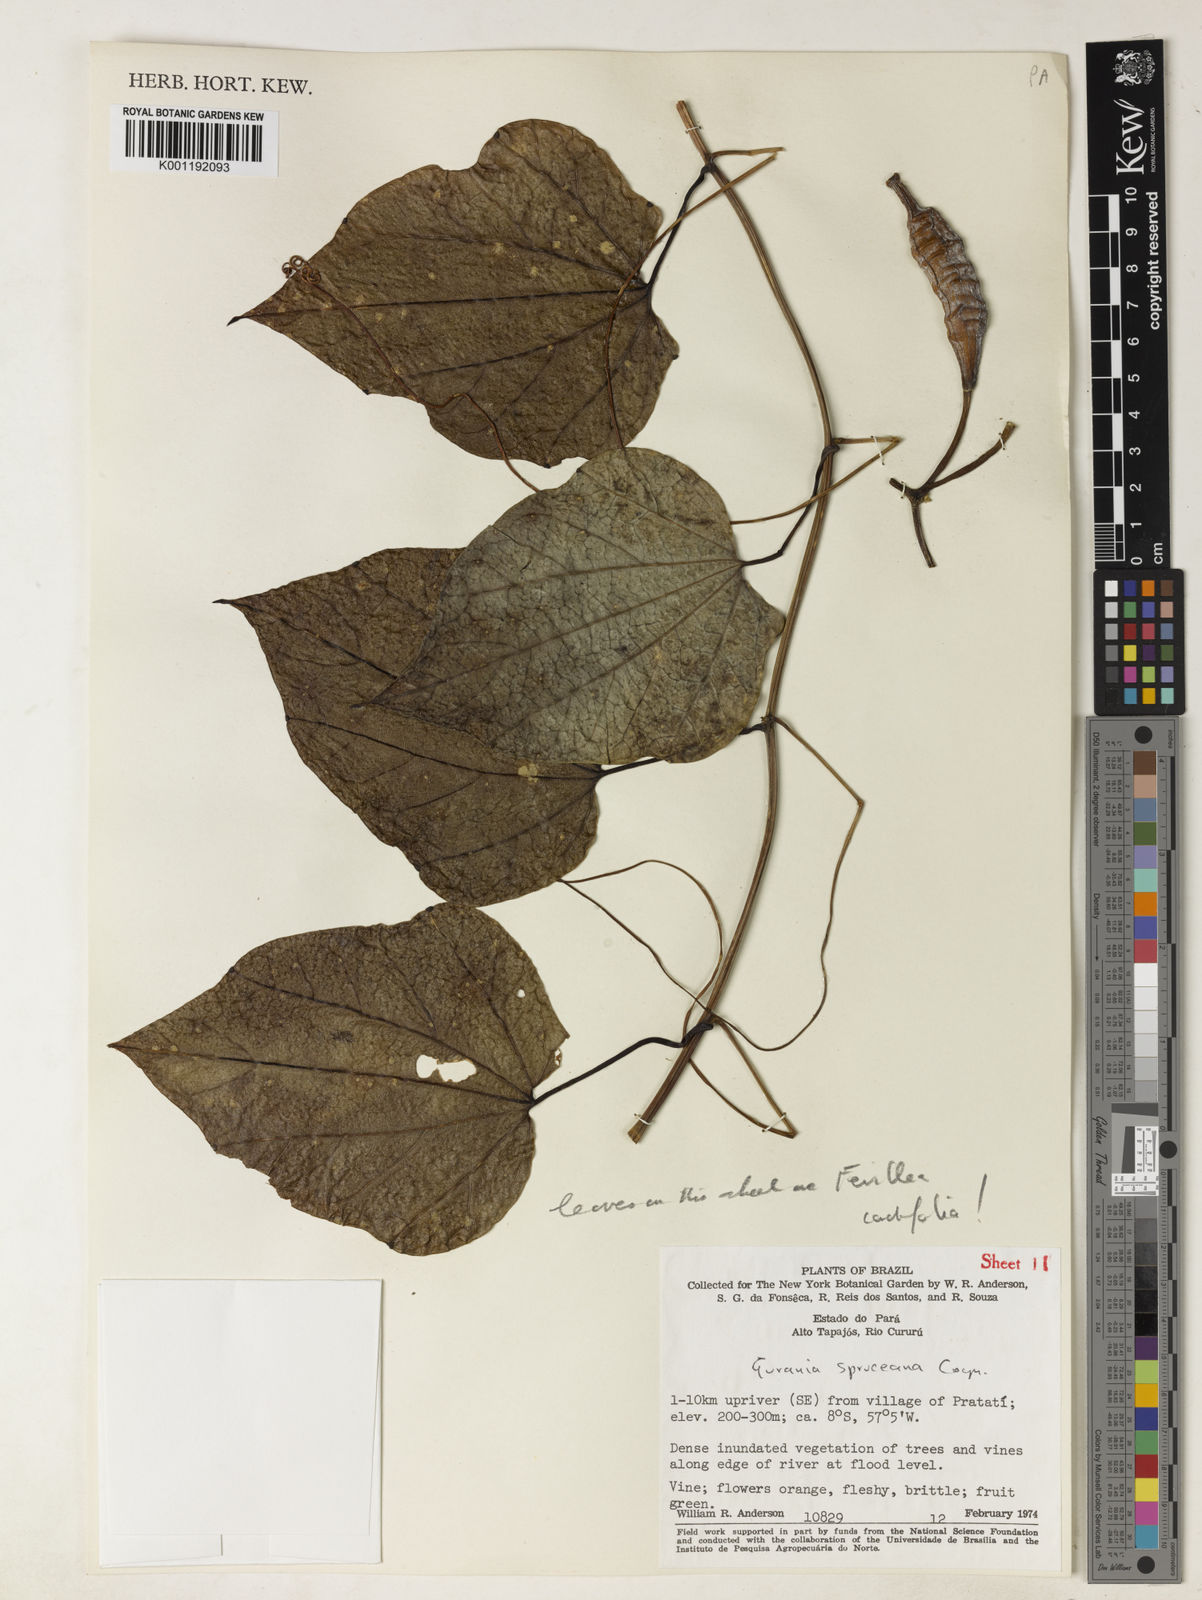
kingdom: Plantae
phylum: Tracheophyta
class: Magnoliopsida
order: Cucurbitales
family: Cucurbitaceae
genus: Gurania
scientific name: Gurania spruceana
